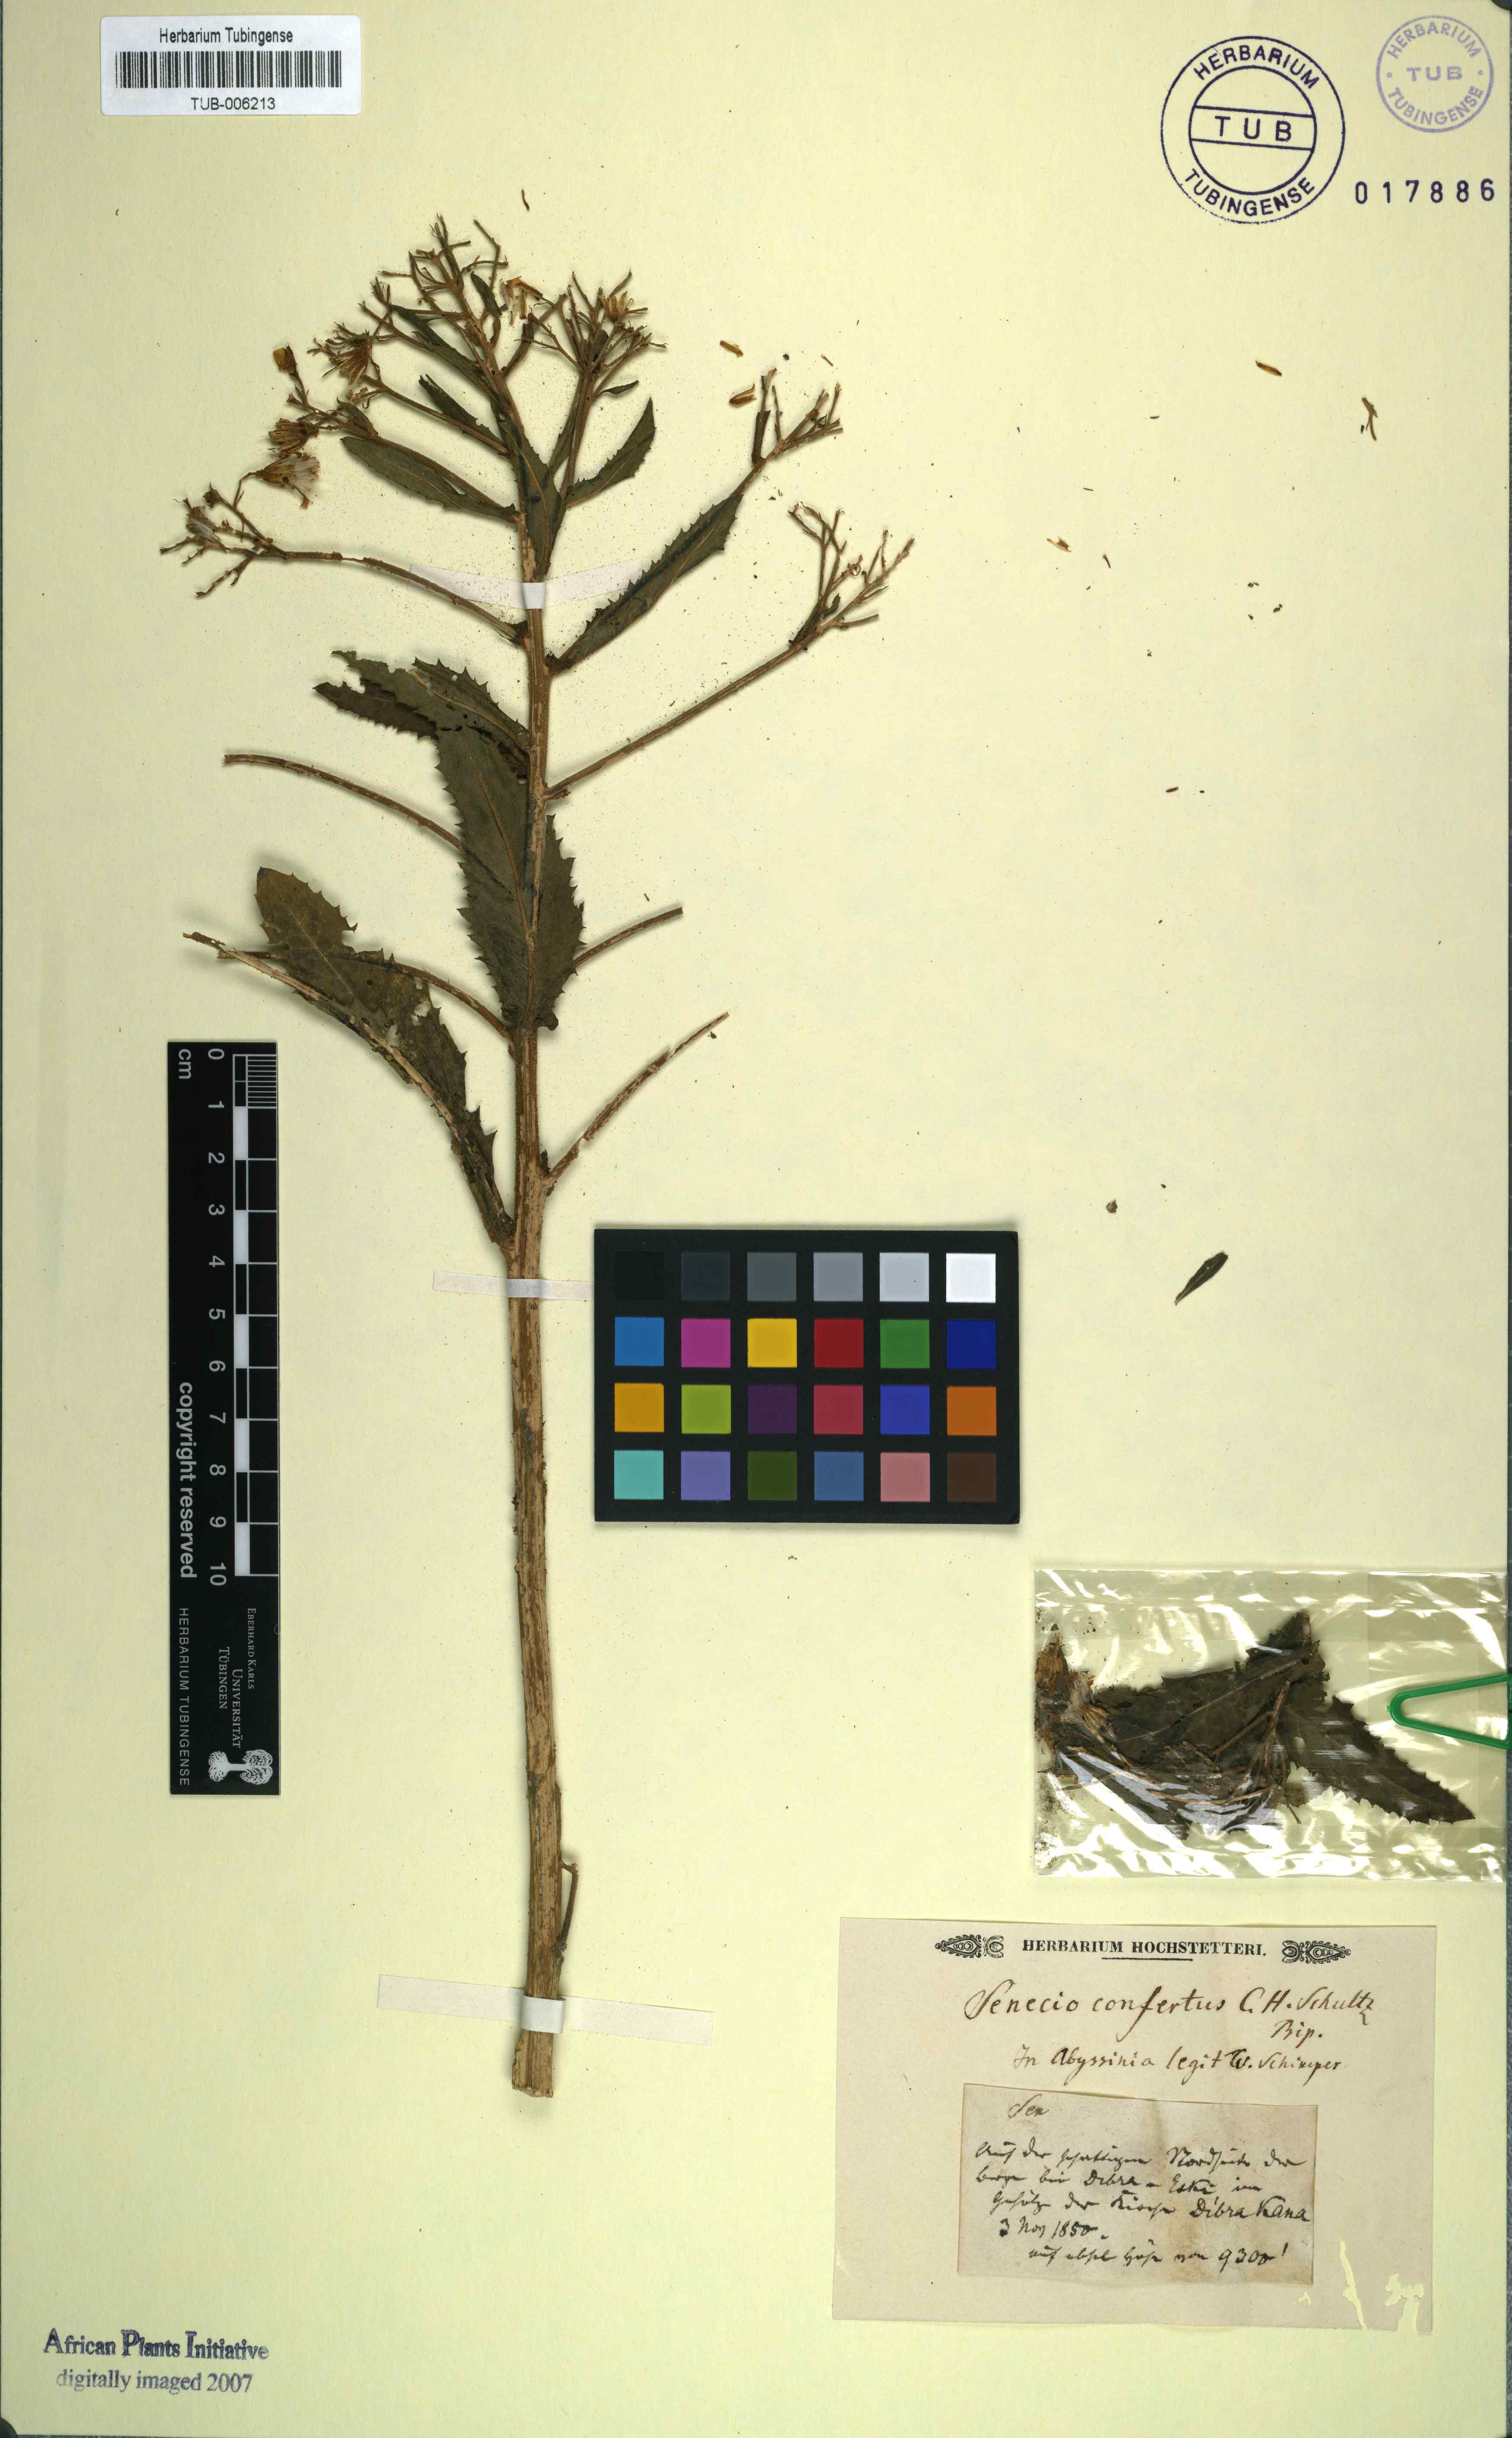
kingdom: Plantae
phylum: Tracheophyta
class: Magnoliopsida
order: Asterales
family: Asteraceae
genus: Senecio
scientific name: Senecio confertus
